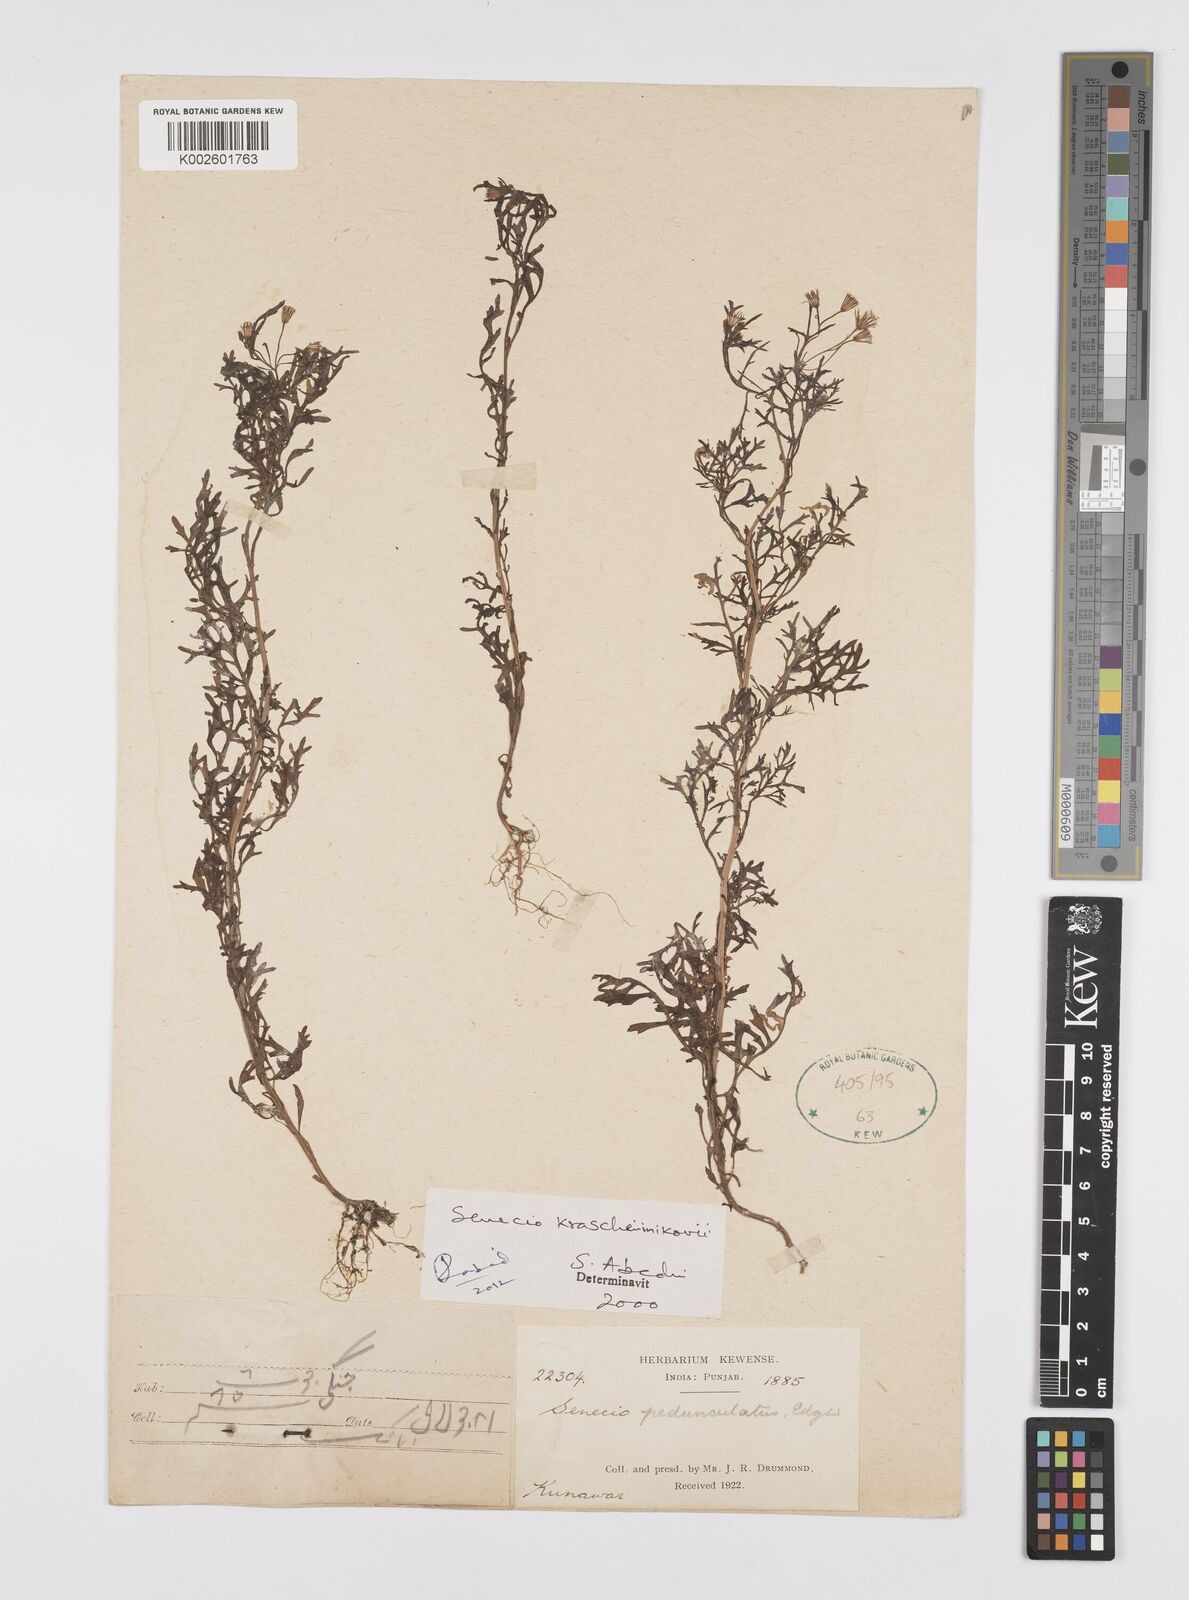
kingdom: Plantae
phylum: Tracheophyta
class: Magnoliopsida
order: Asterales
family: Asteraceae
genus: Senecio
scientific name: Senecio krascheninnikovii
